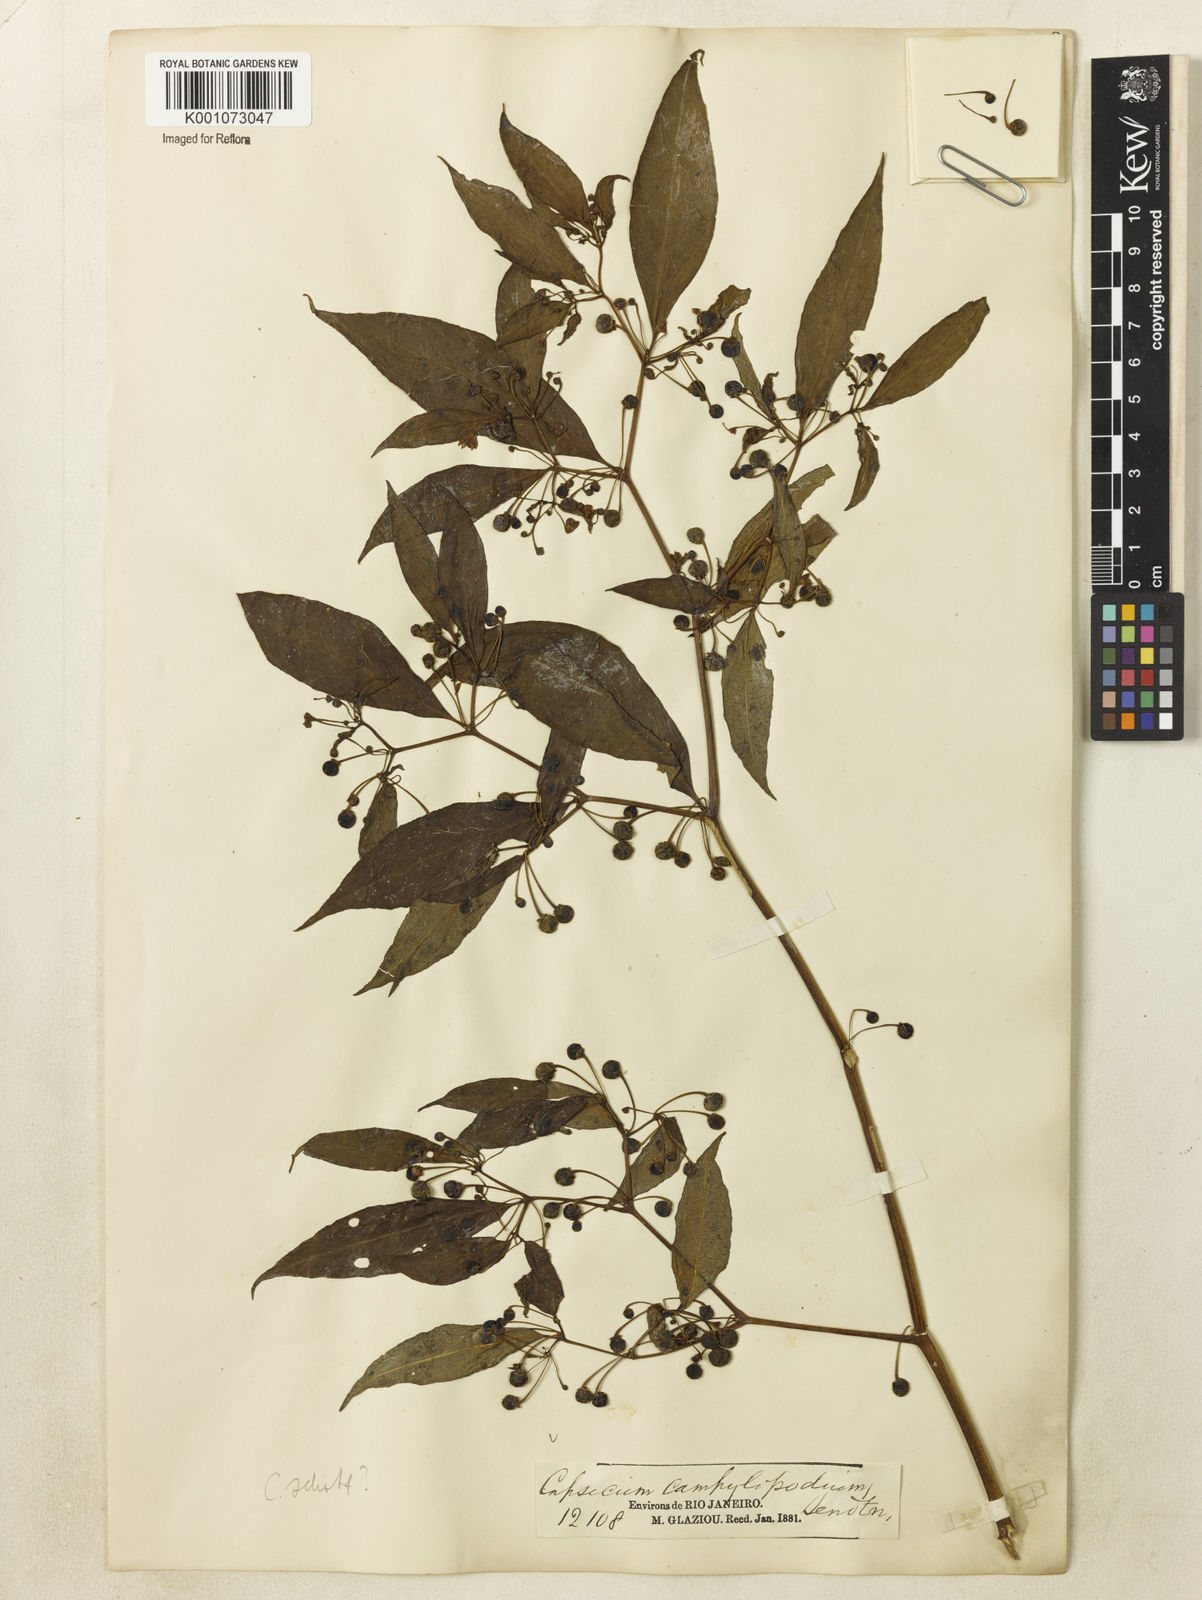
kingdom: Plantae
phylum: Tracheophyta
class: Magnoliopsida
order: Solanales
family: Solanaceae
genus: Capsicum
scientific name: Capsicum
